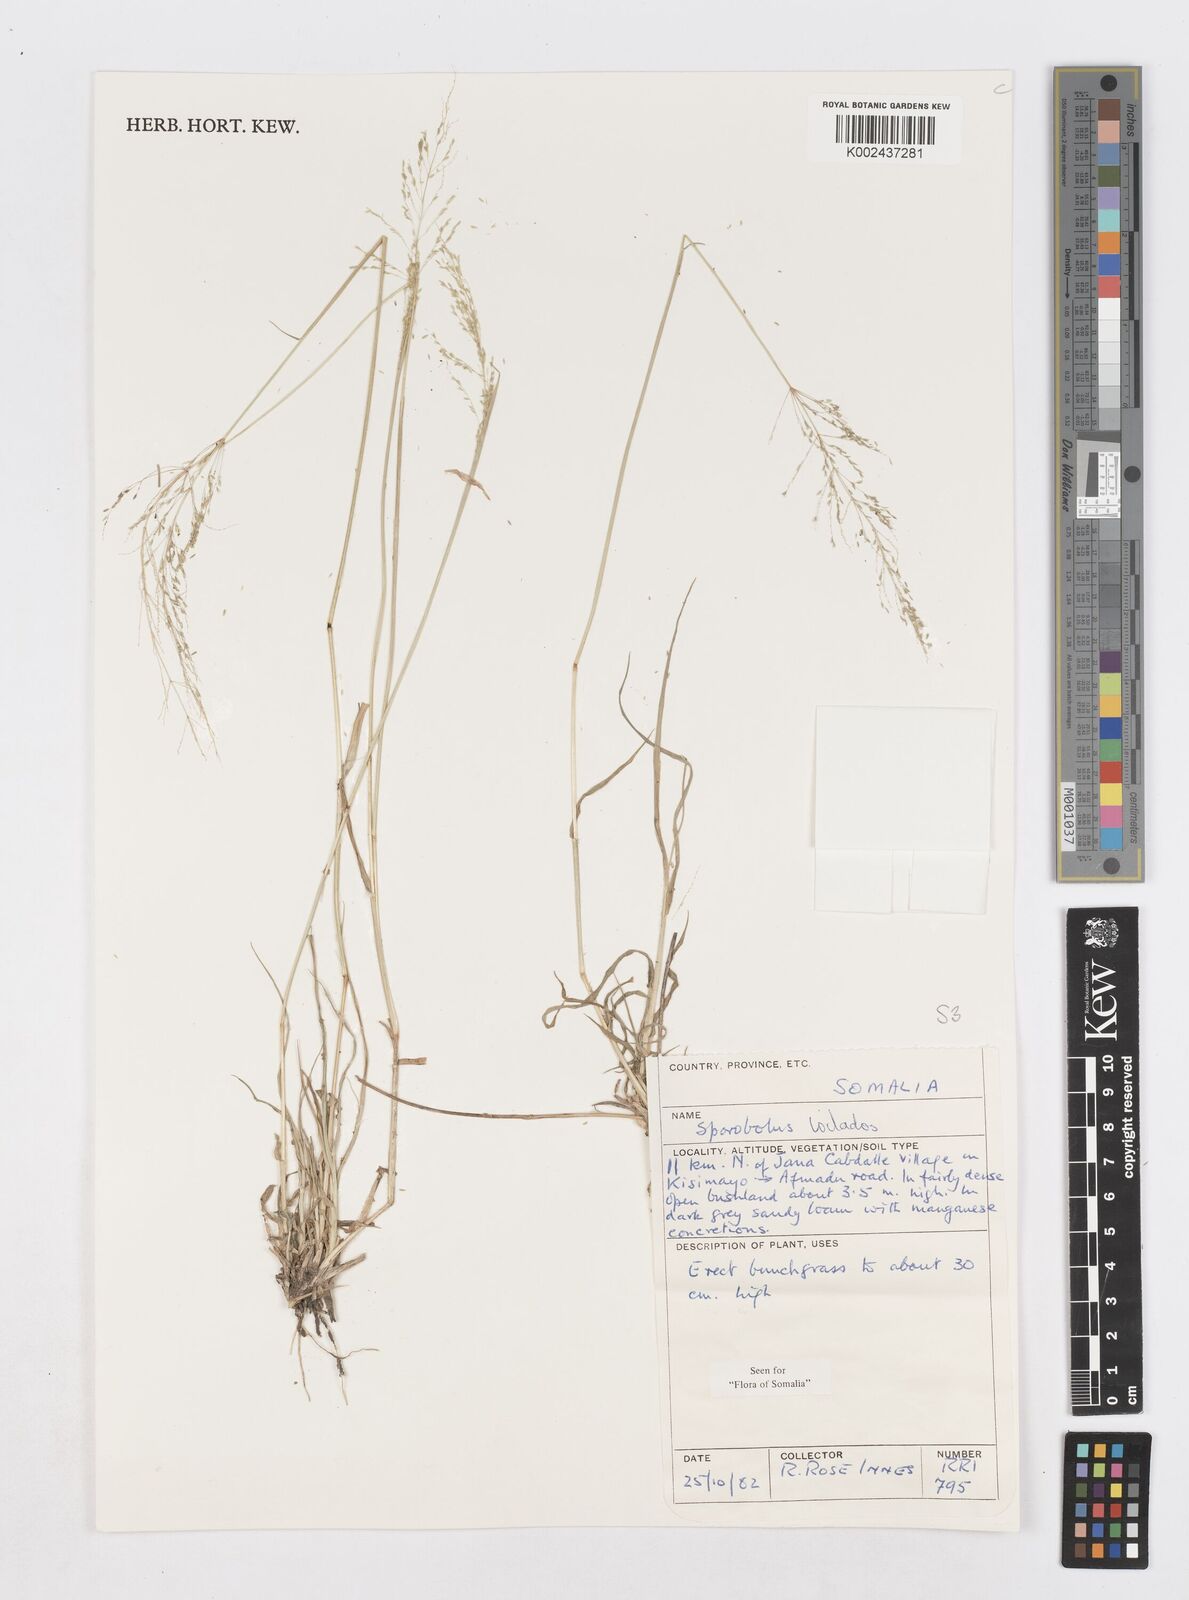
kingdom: Plantae
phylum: Tracheophyta
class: Liliopsida
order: Poales
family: Poaceae
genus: Sporobolus
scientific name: Sporobolus ioclados
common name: Pan dropseed
